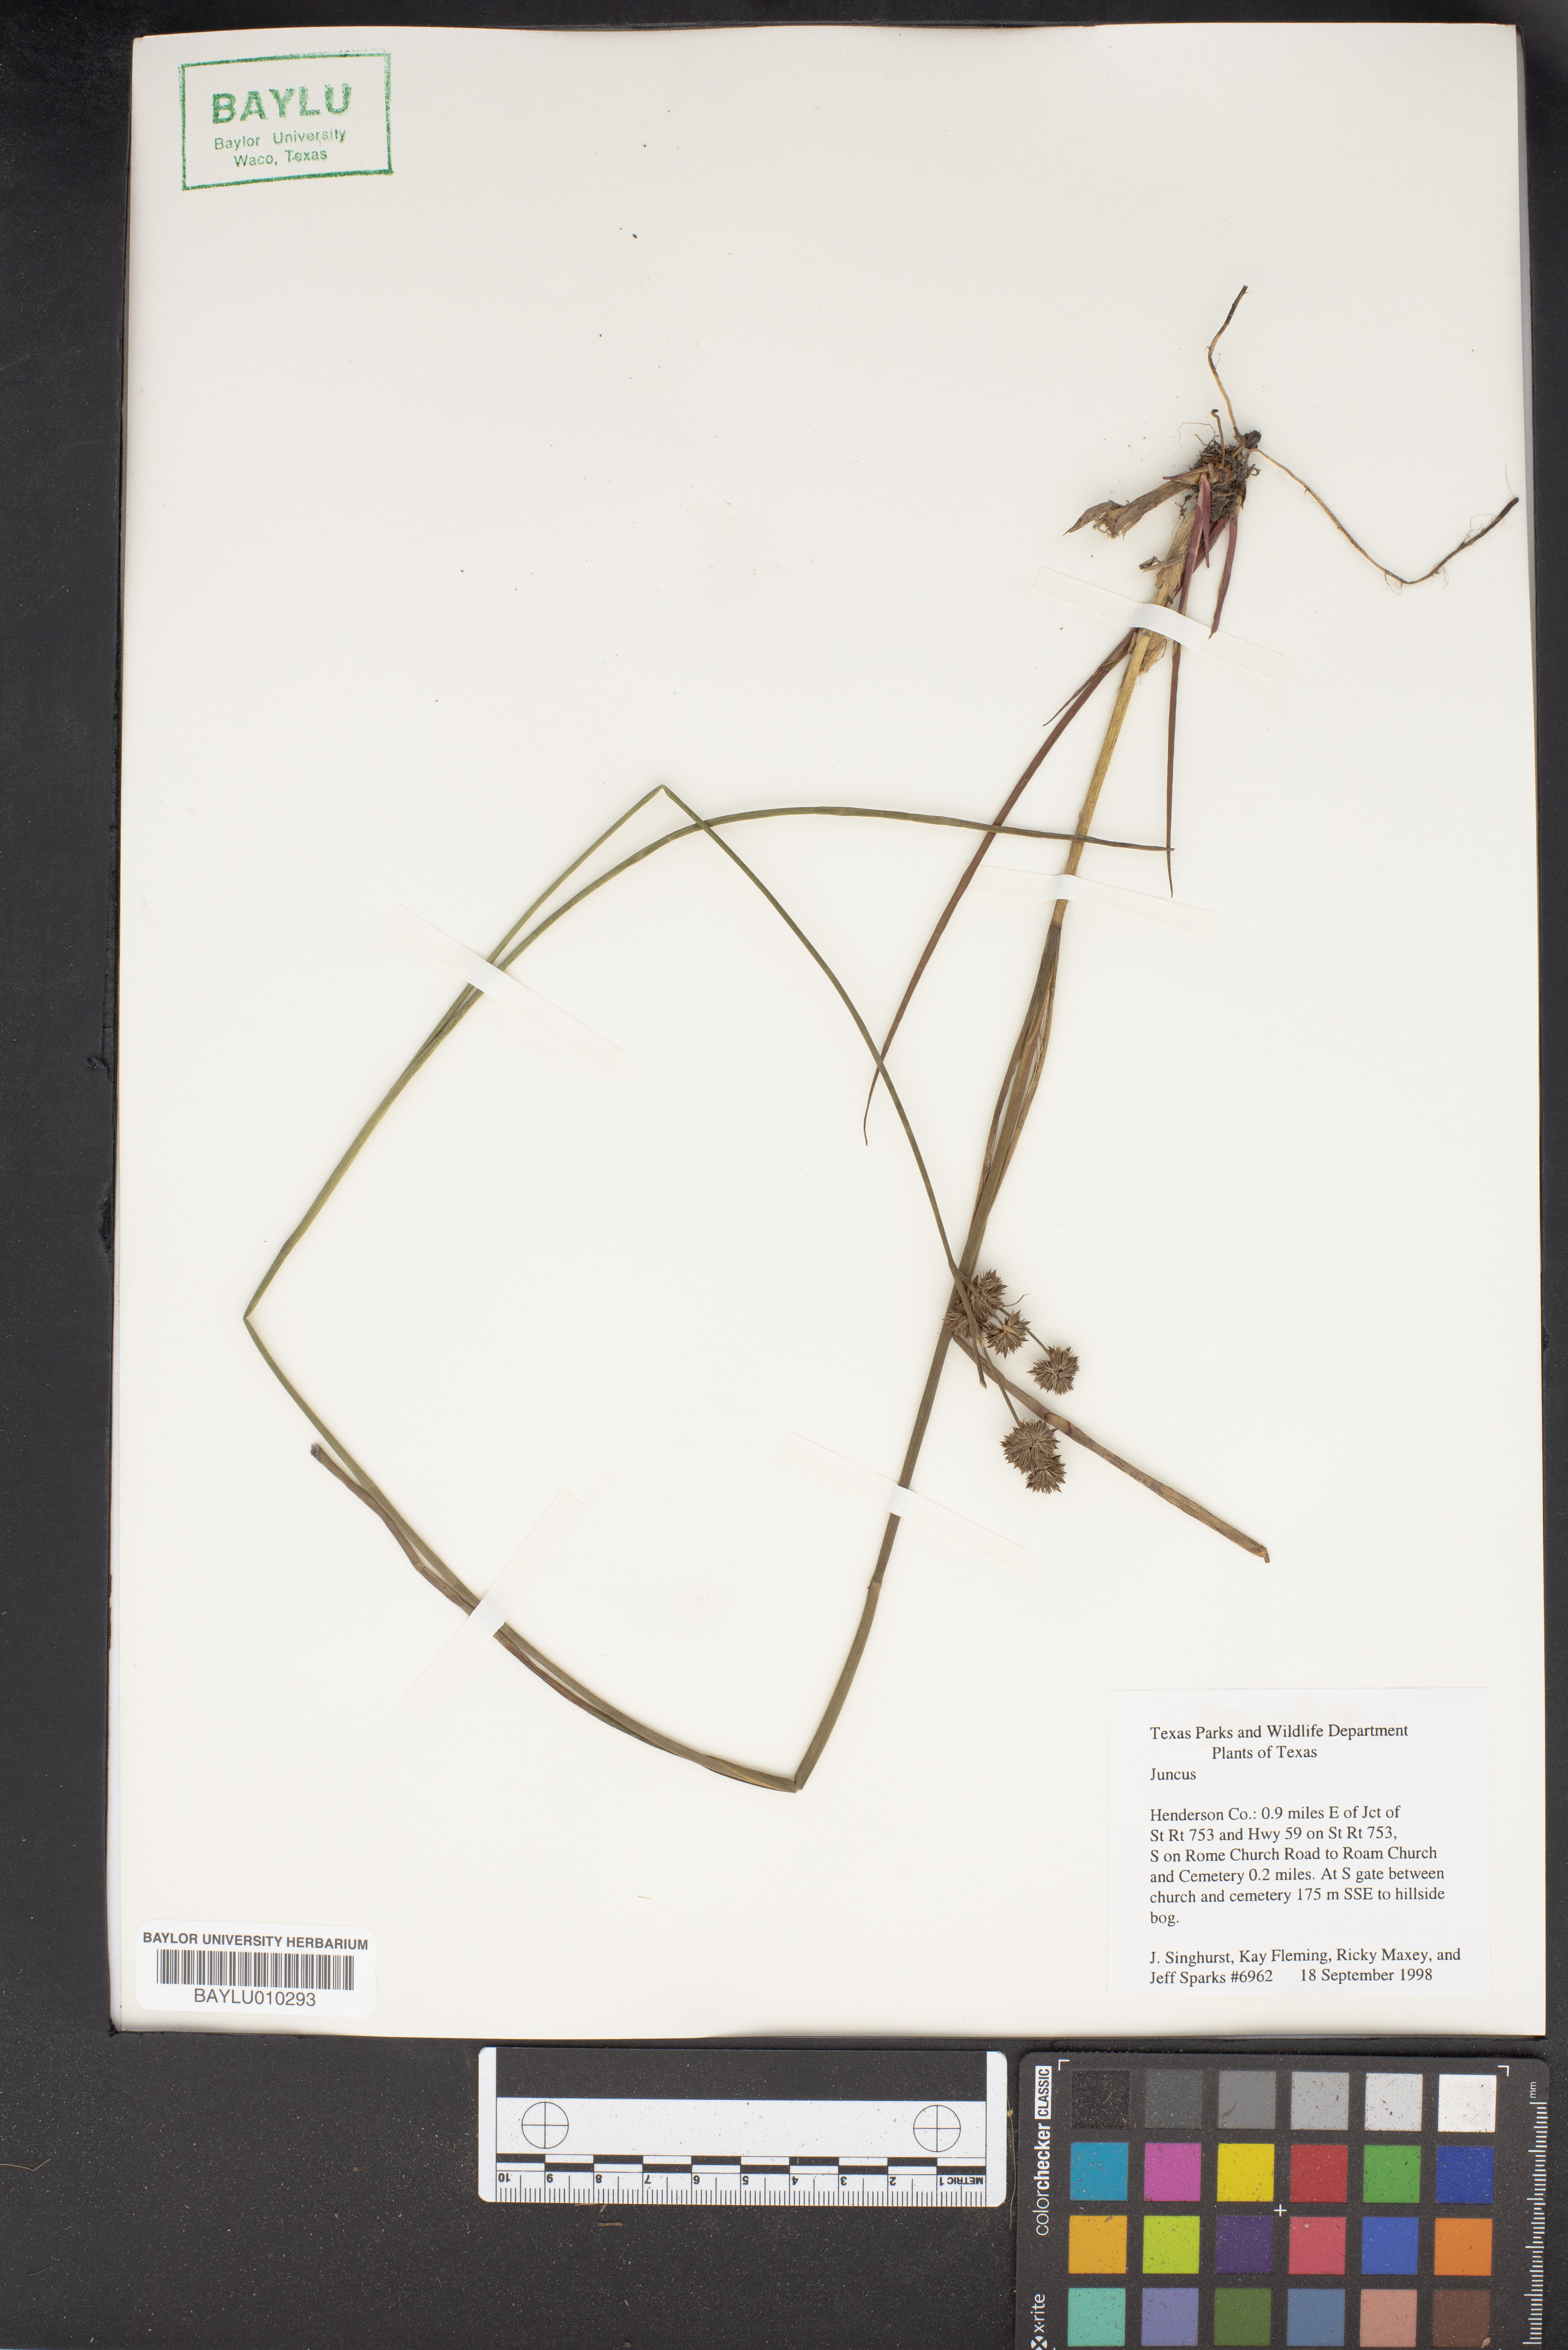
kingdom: Plantae
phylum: Tracheophyta
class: Liliopsida
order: Poales
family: Juncaceae
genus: Juncus
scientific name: Juncus
